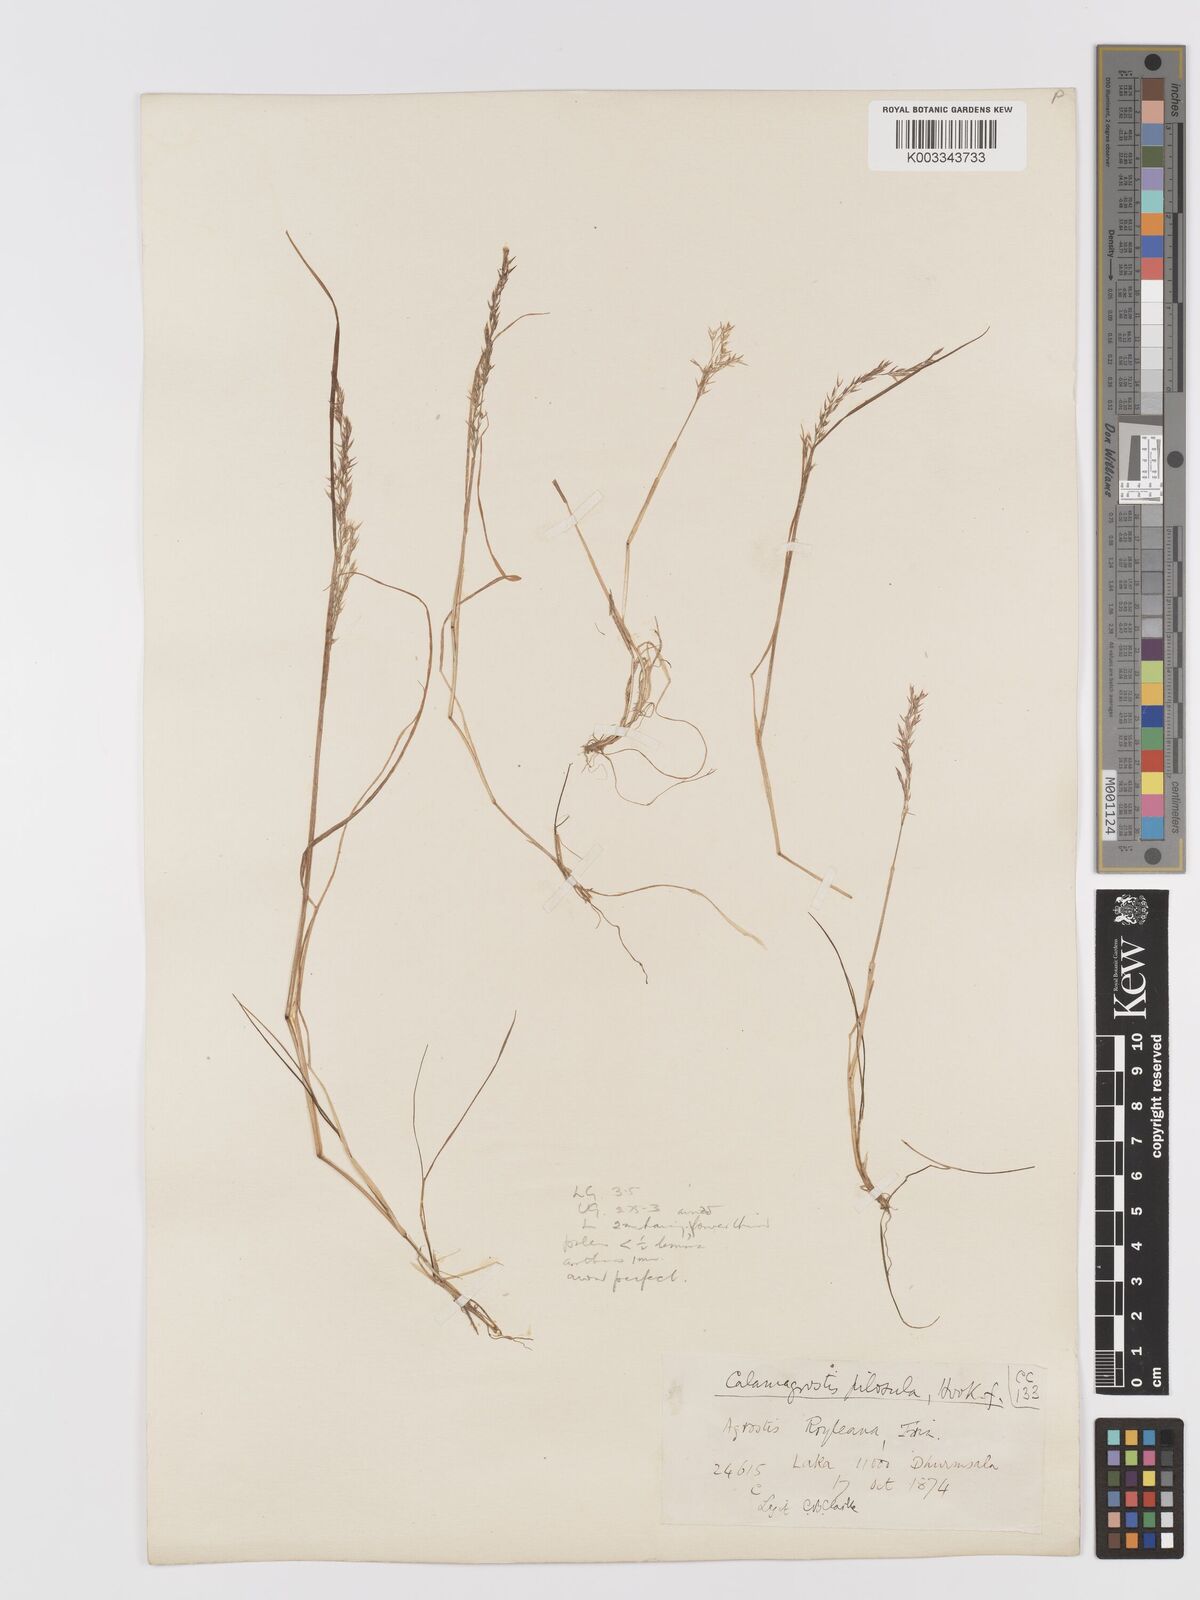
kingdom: Plantae
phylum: Tracheophyta
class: Liliopsida
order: Poales
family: Poaceae
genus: Agrostis
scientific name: Agrostis pilosula
